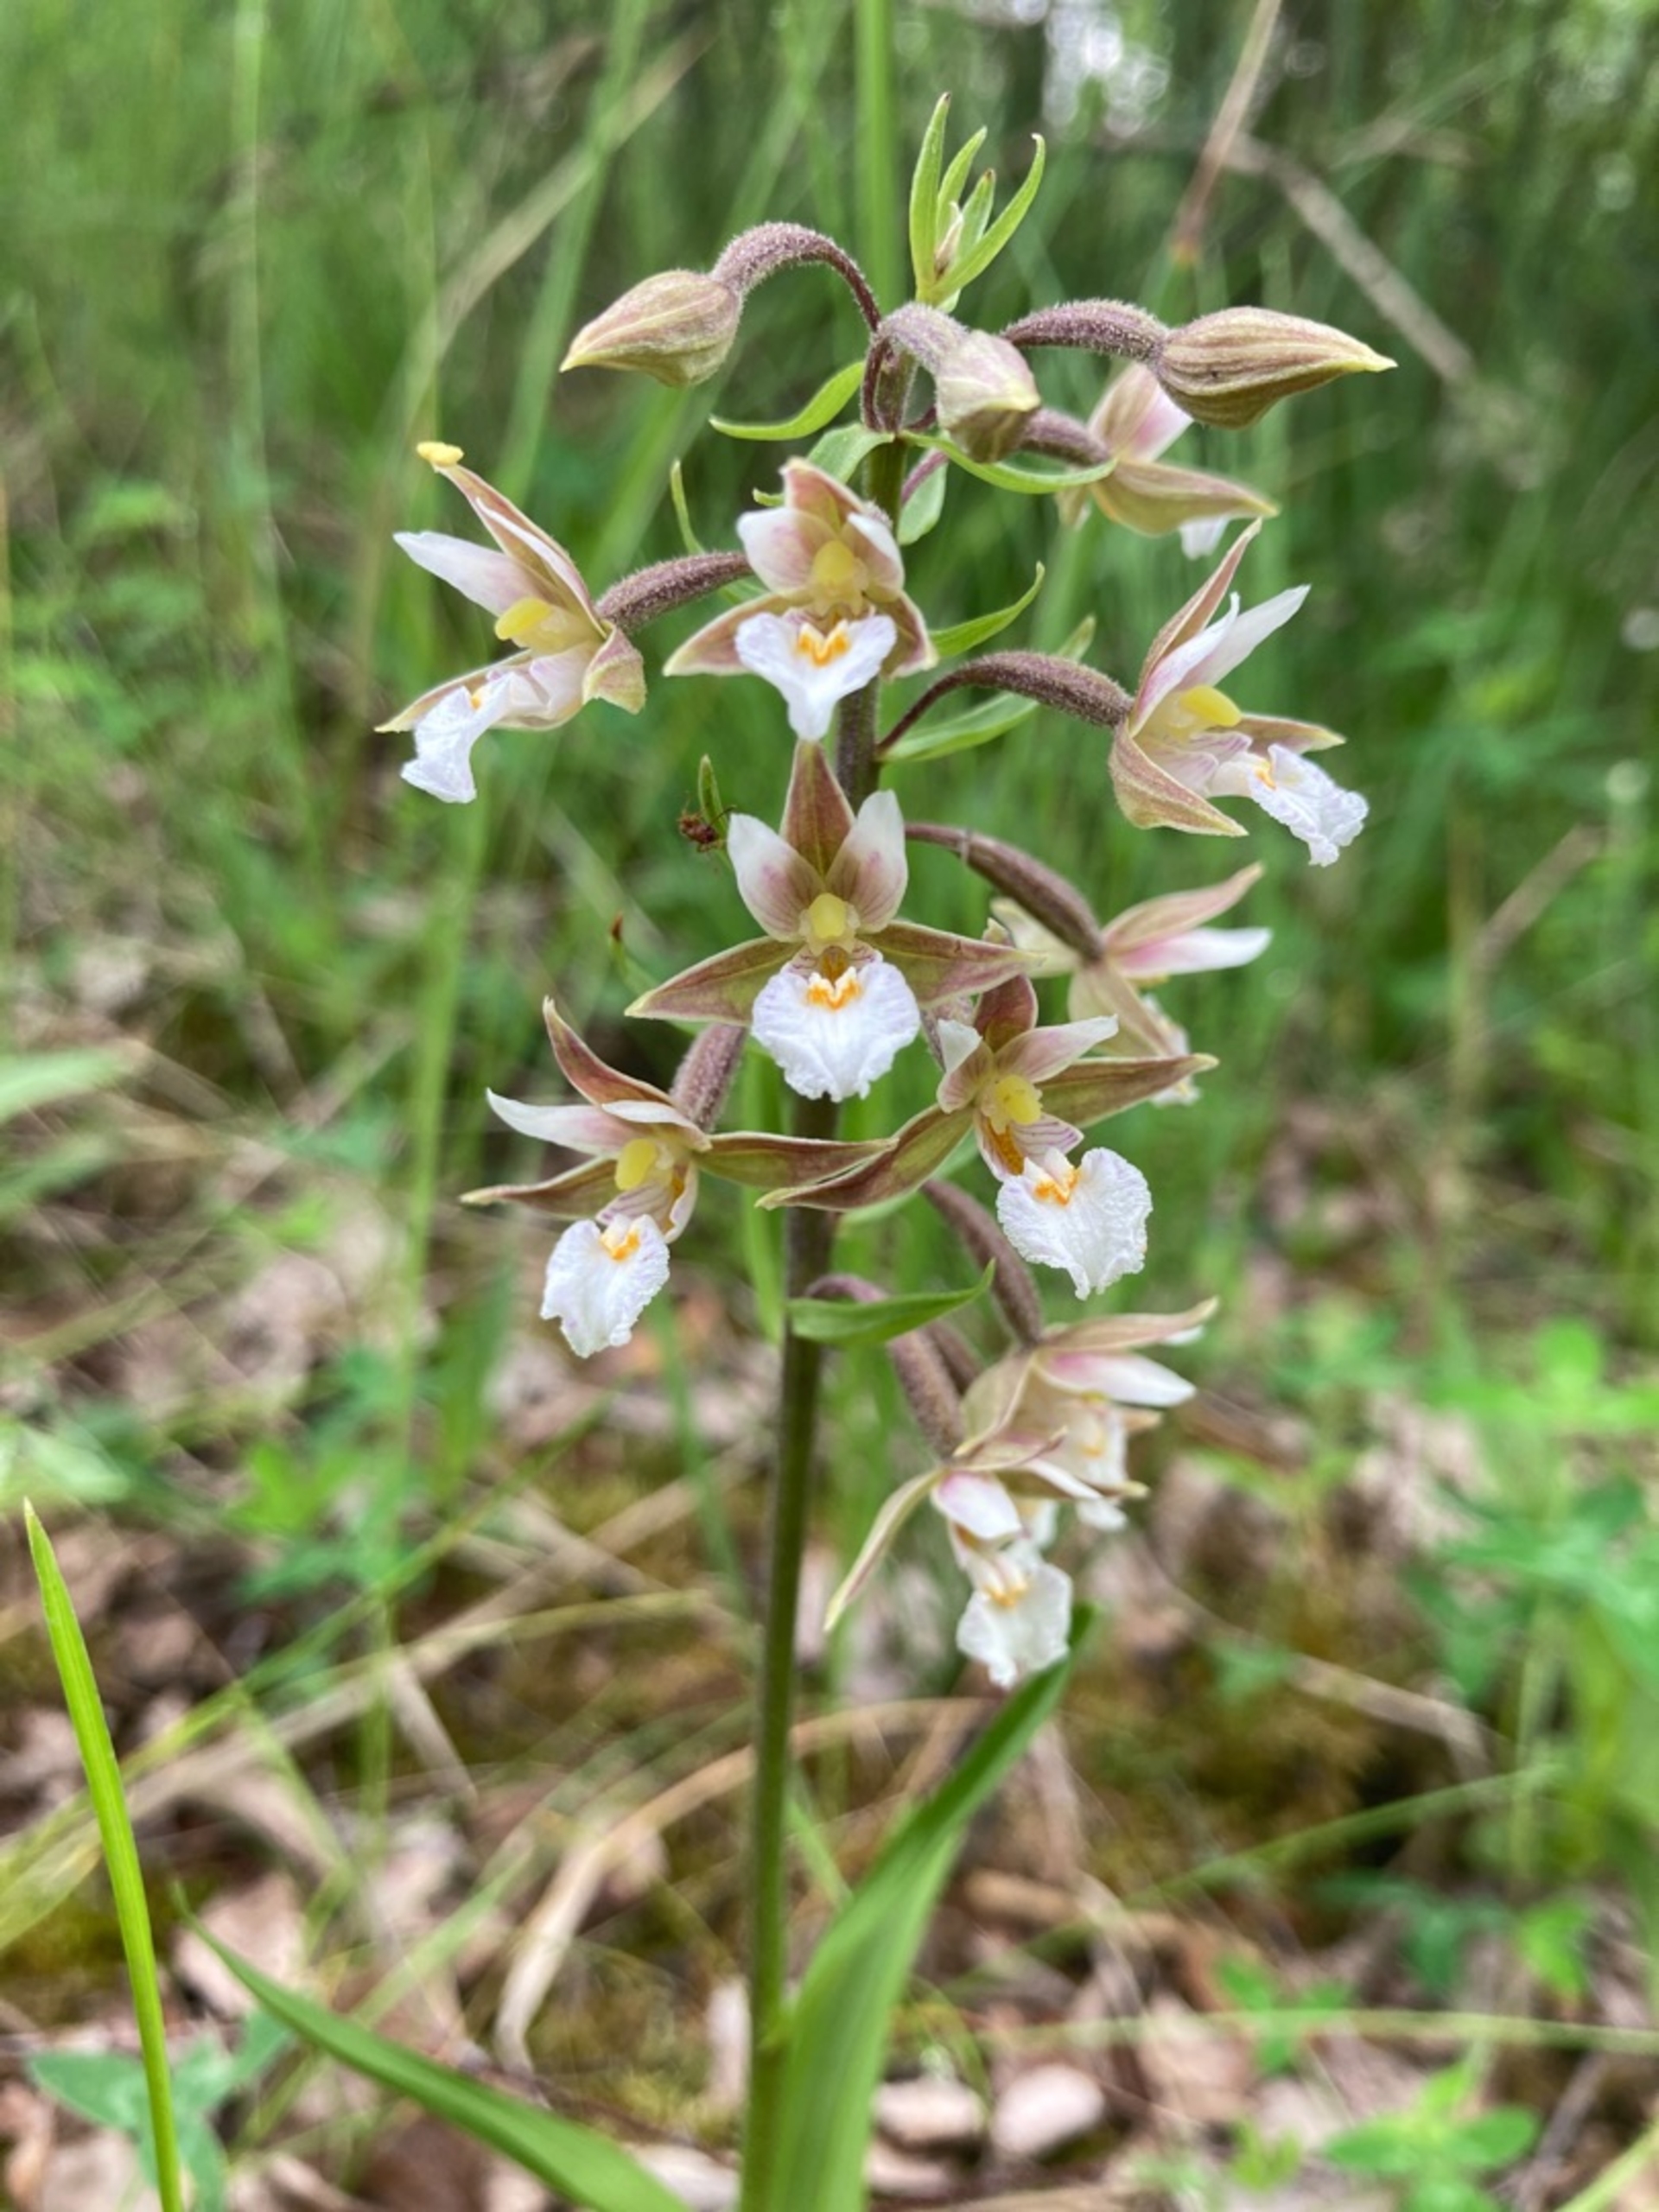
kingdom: Plantae
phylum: Tracheophyta
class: Liliopsida
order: Asparagales
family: Orchidaceae
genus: Epipactis
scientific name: Epipactis palustris
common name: Sump-hullæbe
